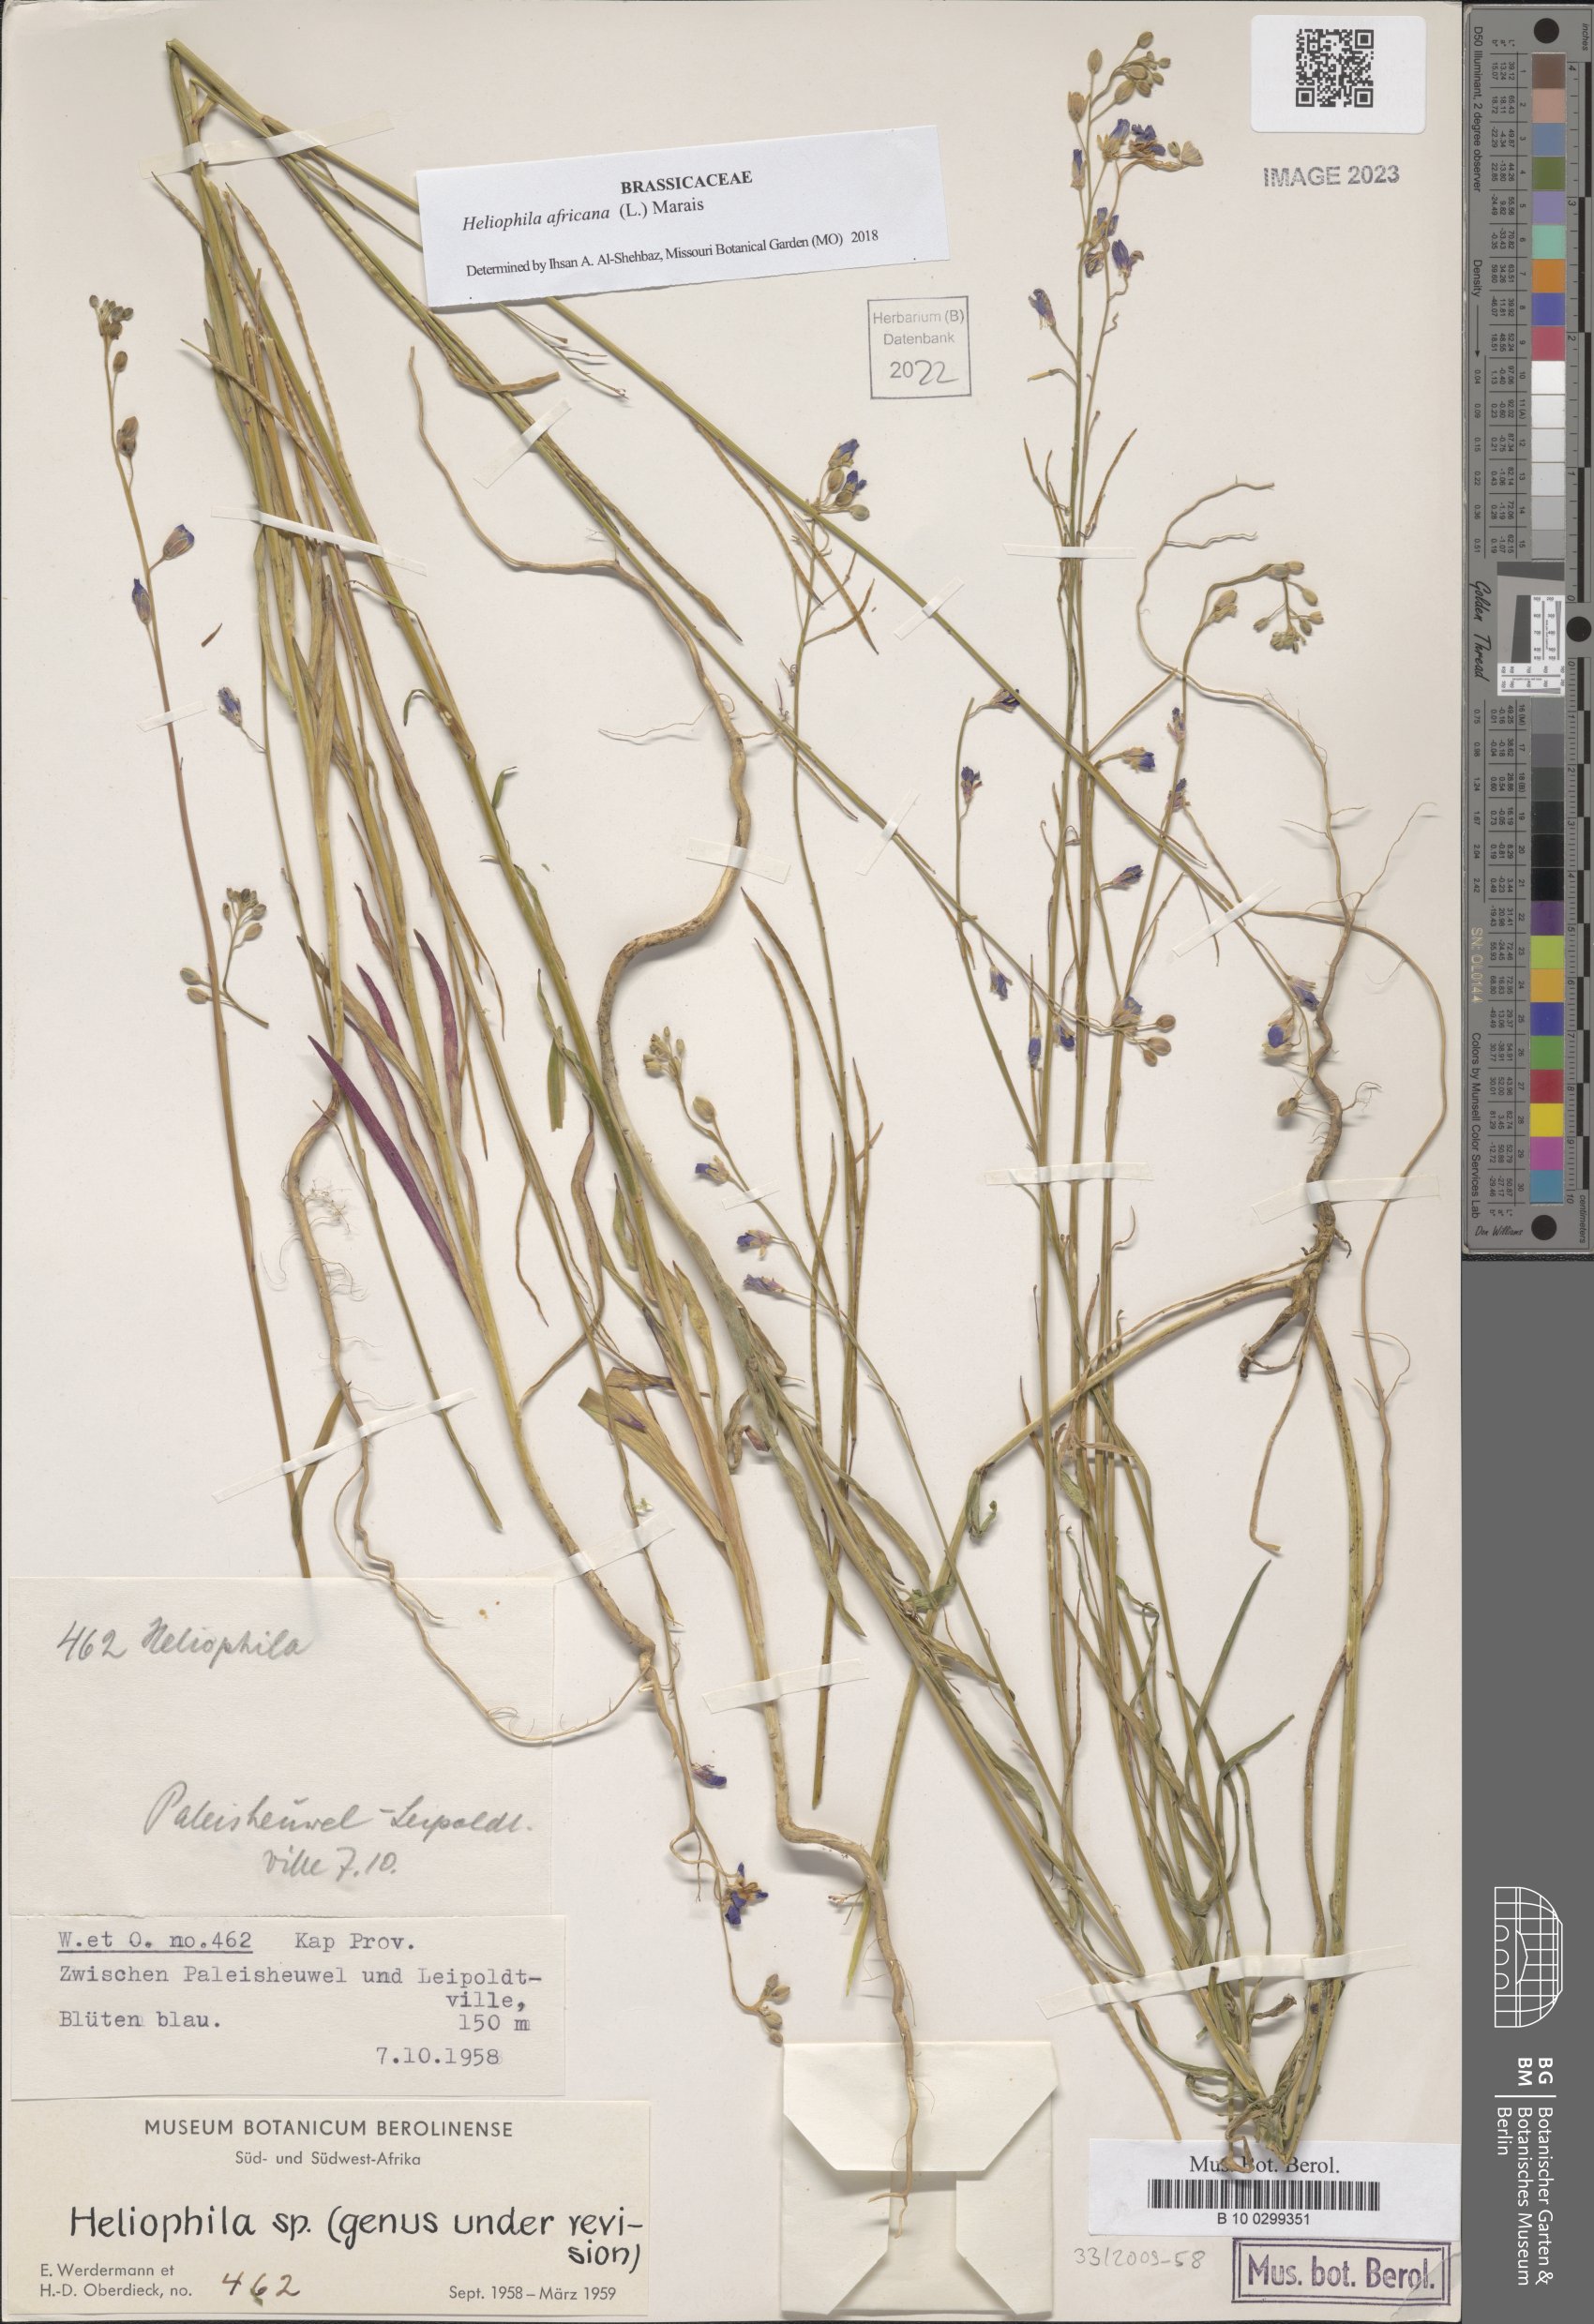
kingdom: Plantae
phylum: Tracheophyta
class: Magnoliopsida
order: Brassicales
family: Brassicaceae
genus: Heliophila
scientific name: Heliophila africana
